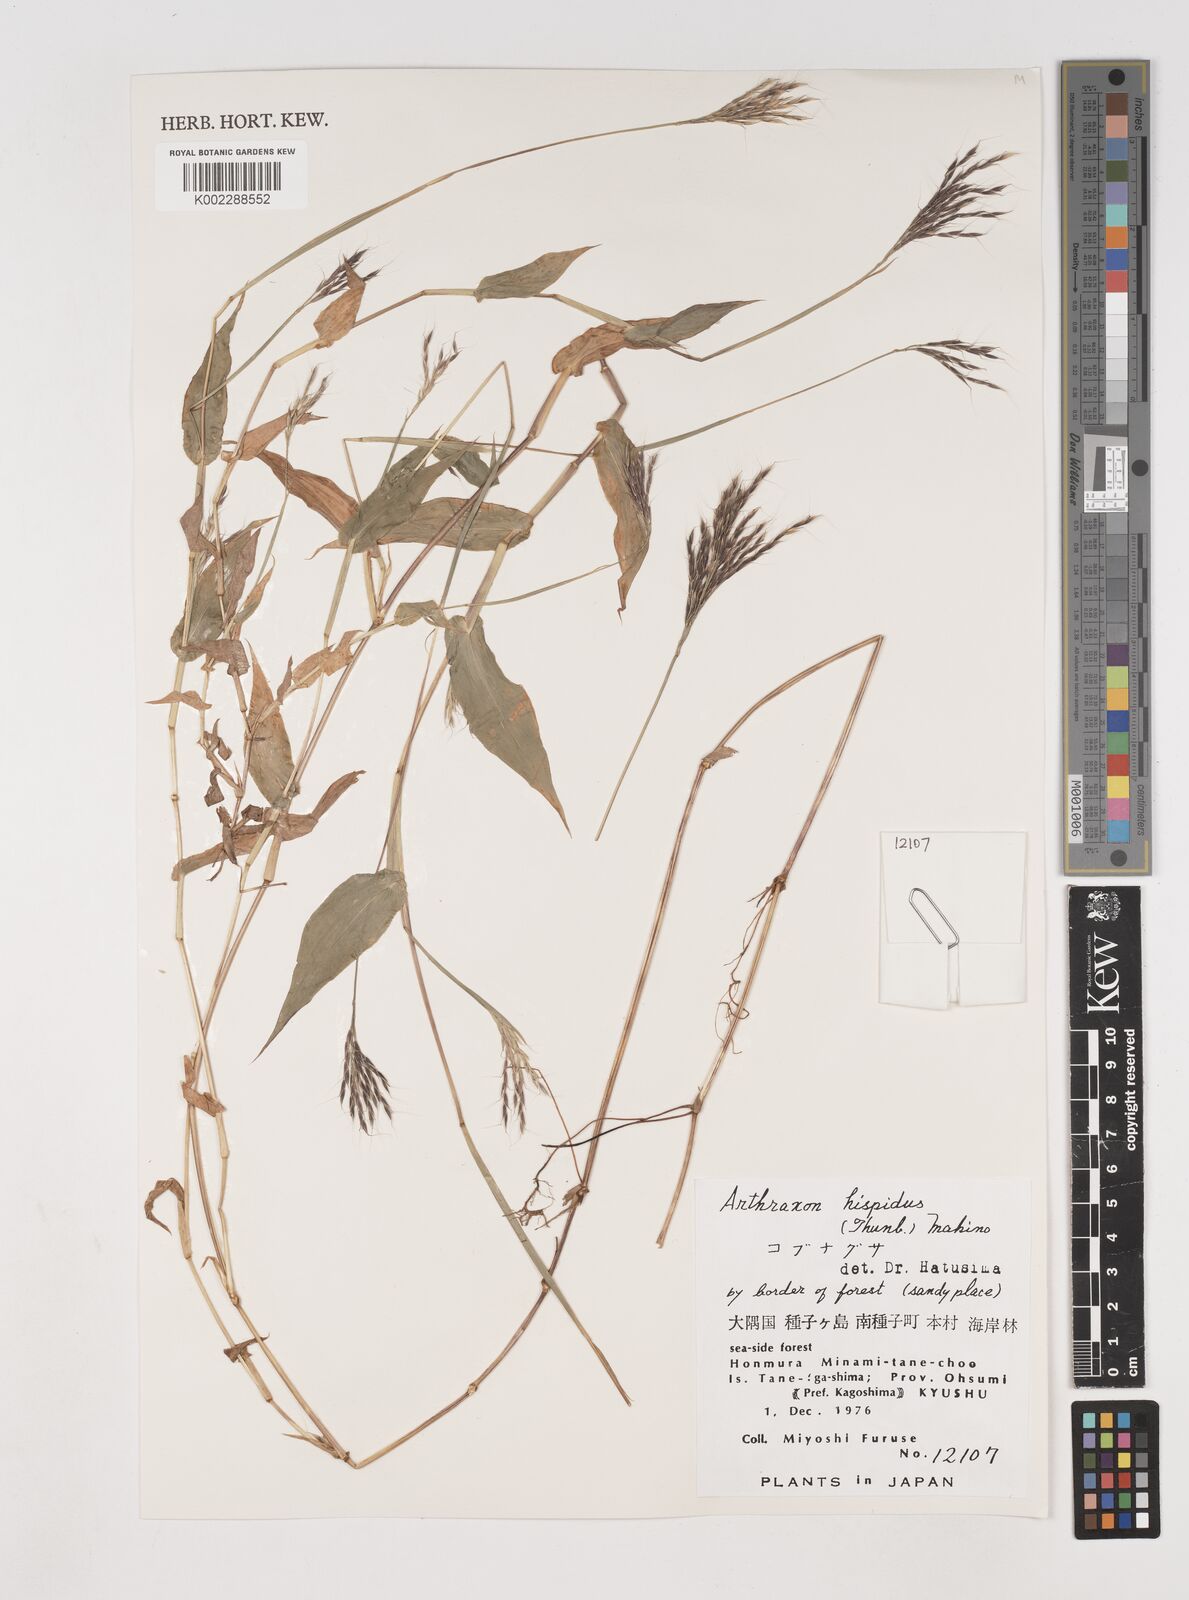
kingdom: Plantae
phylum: Tracheophyta
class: Liliopsida
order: Poales
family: Poaceae
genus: Arthraxon
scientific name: Arthraxon hispidus
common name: Small carpgrass
